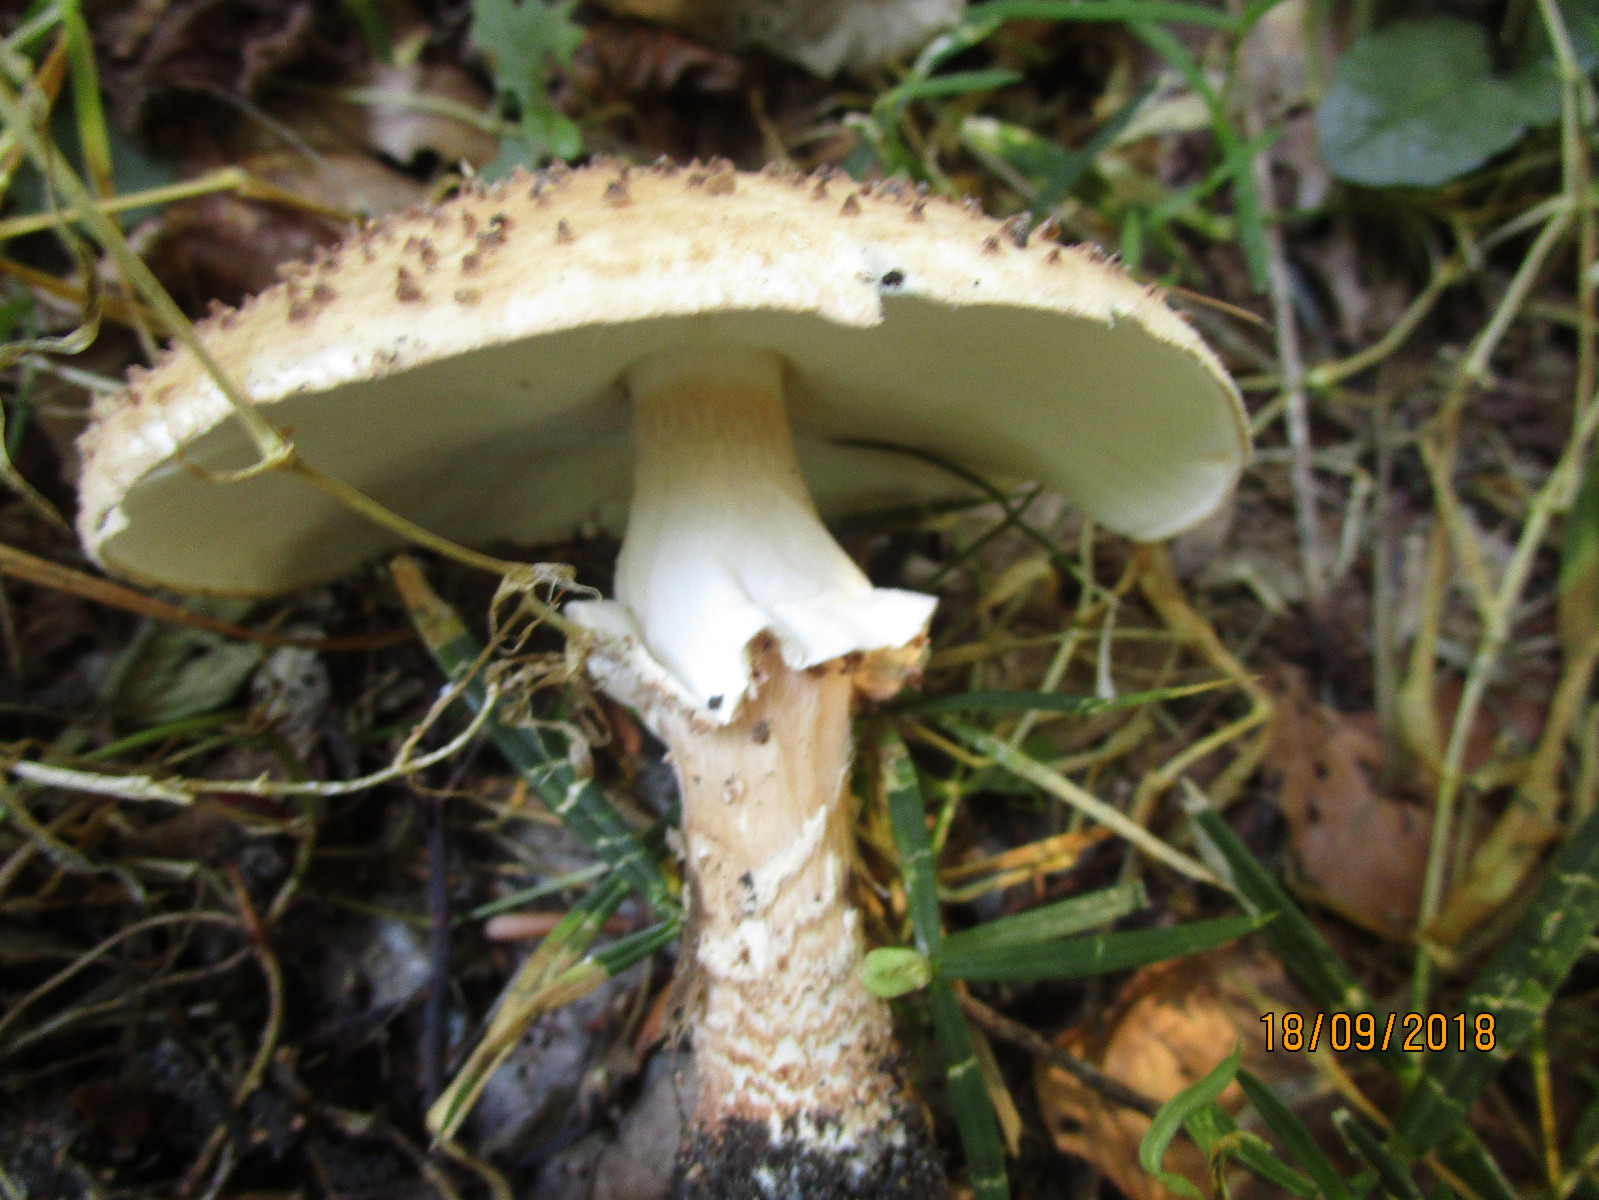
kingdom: Fungi
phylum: Basidiomycota
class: Agaricomycetes
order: Agaricales
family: Agaricaceae
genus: Echinoderma
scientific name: Echinoderma asperum
